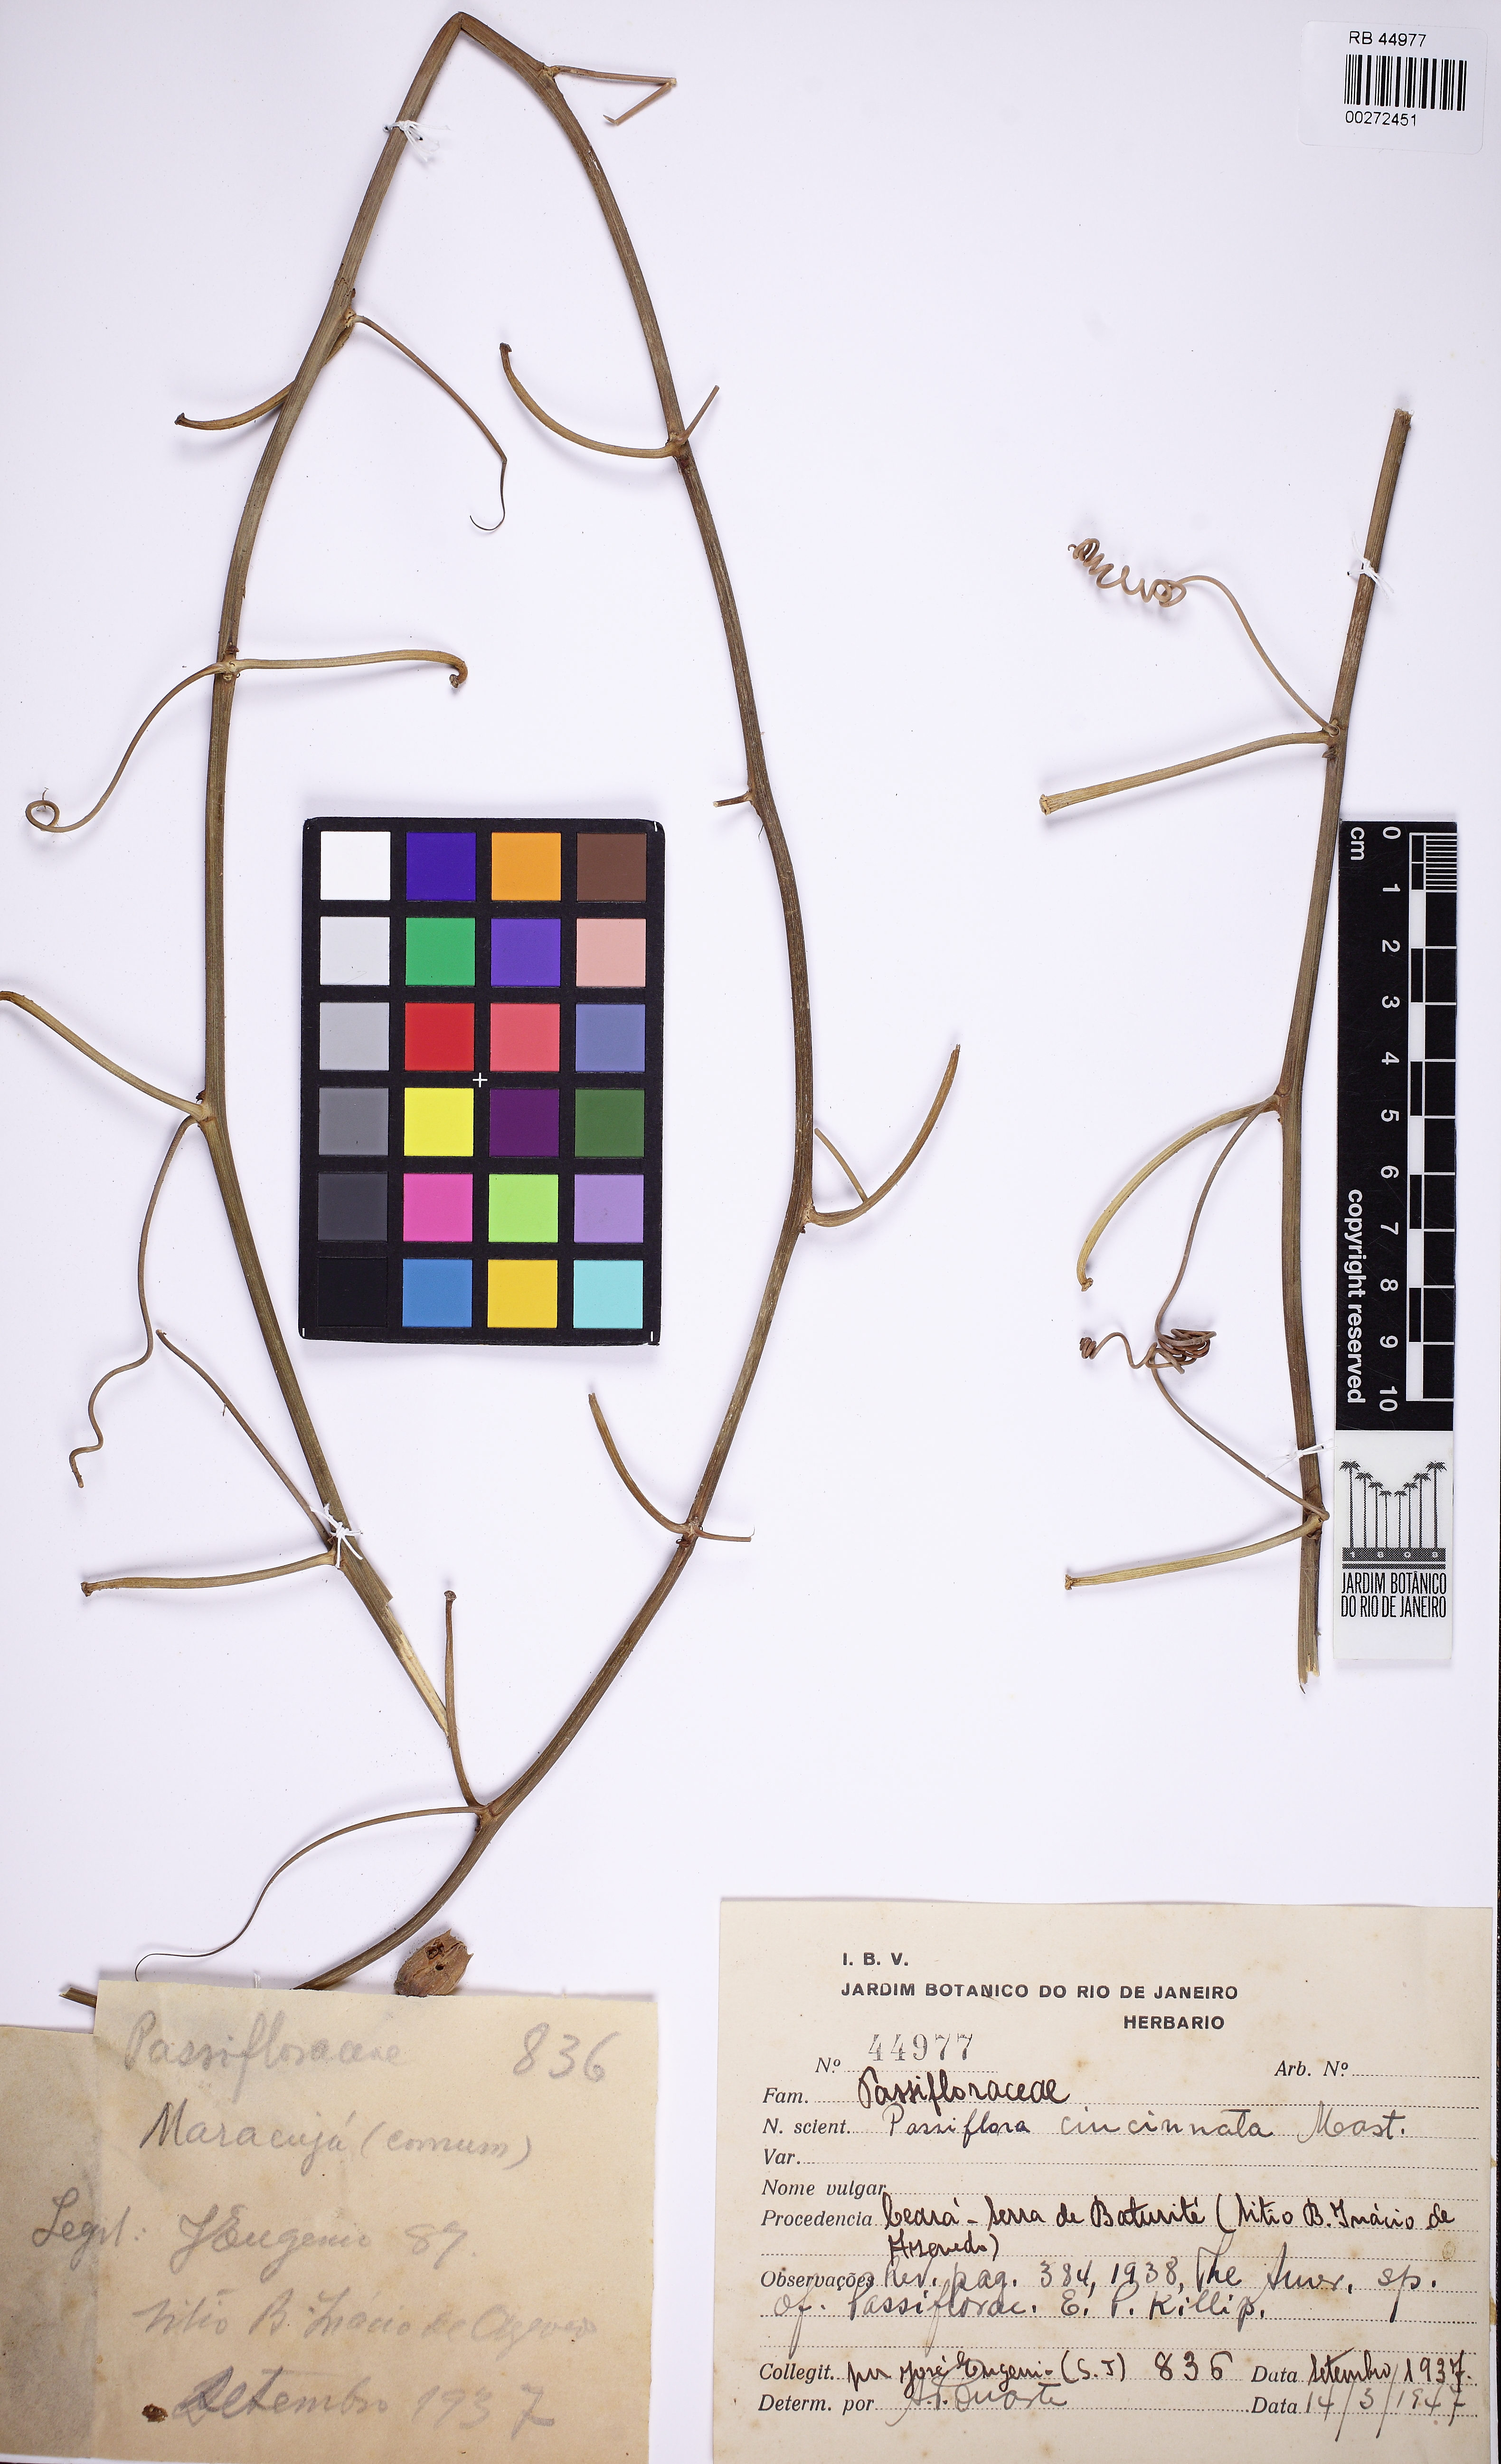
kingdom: Plantae
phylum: Tracheophyta
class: Magnoliopsida
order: Malpighiales
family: Passifloraceae
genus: Passiflora
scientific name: Passiflora cincinnata
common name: Crato passionvine
